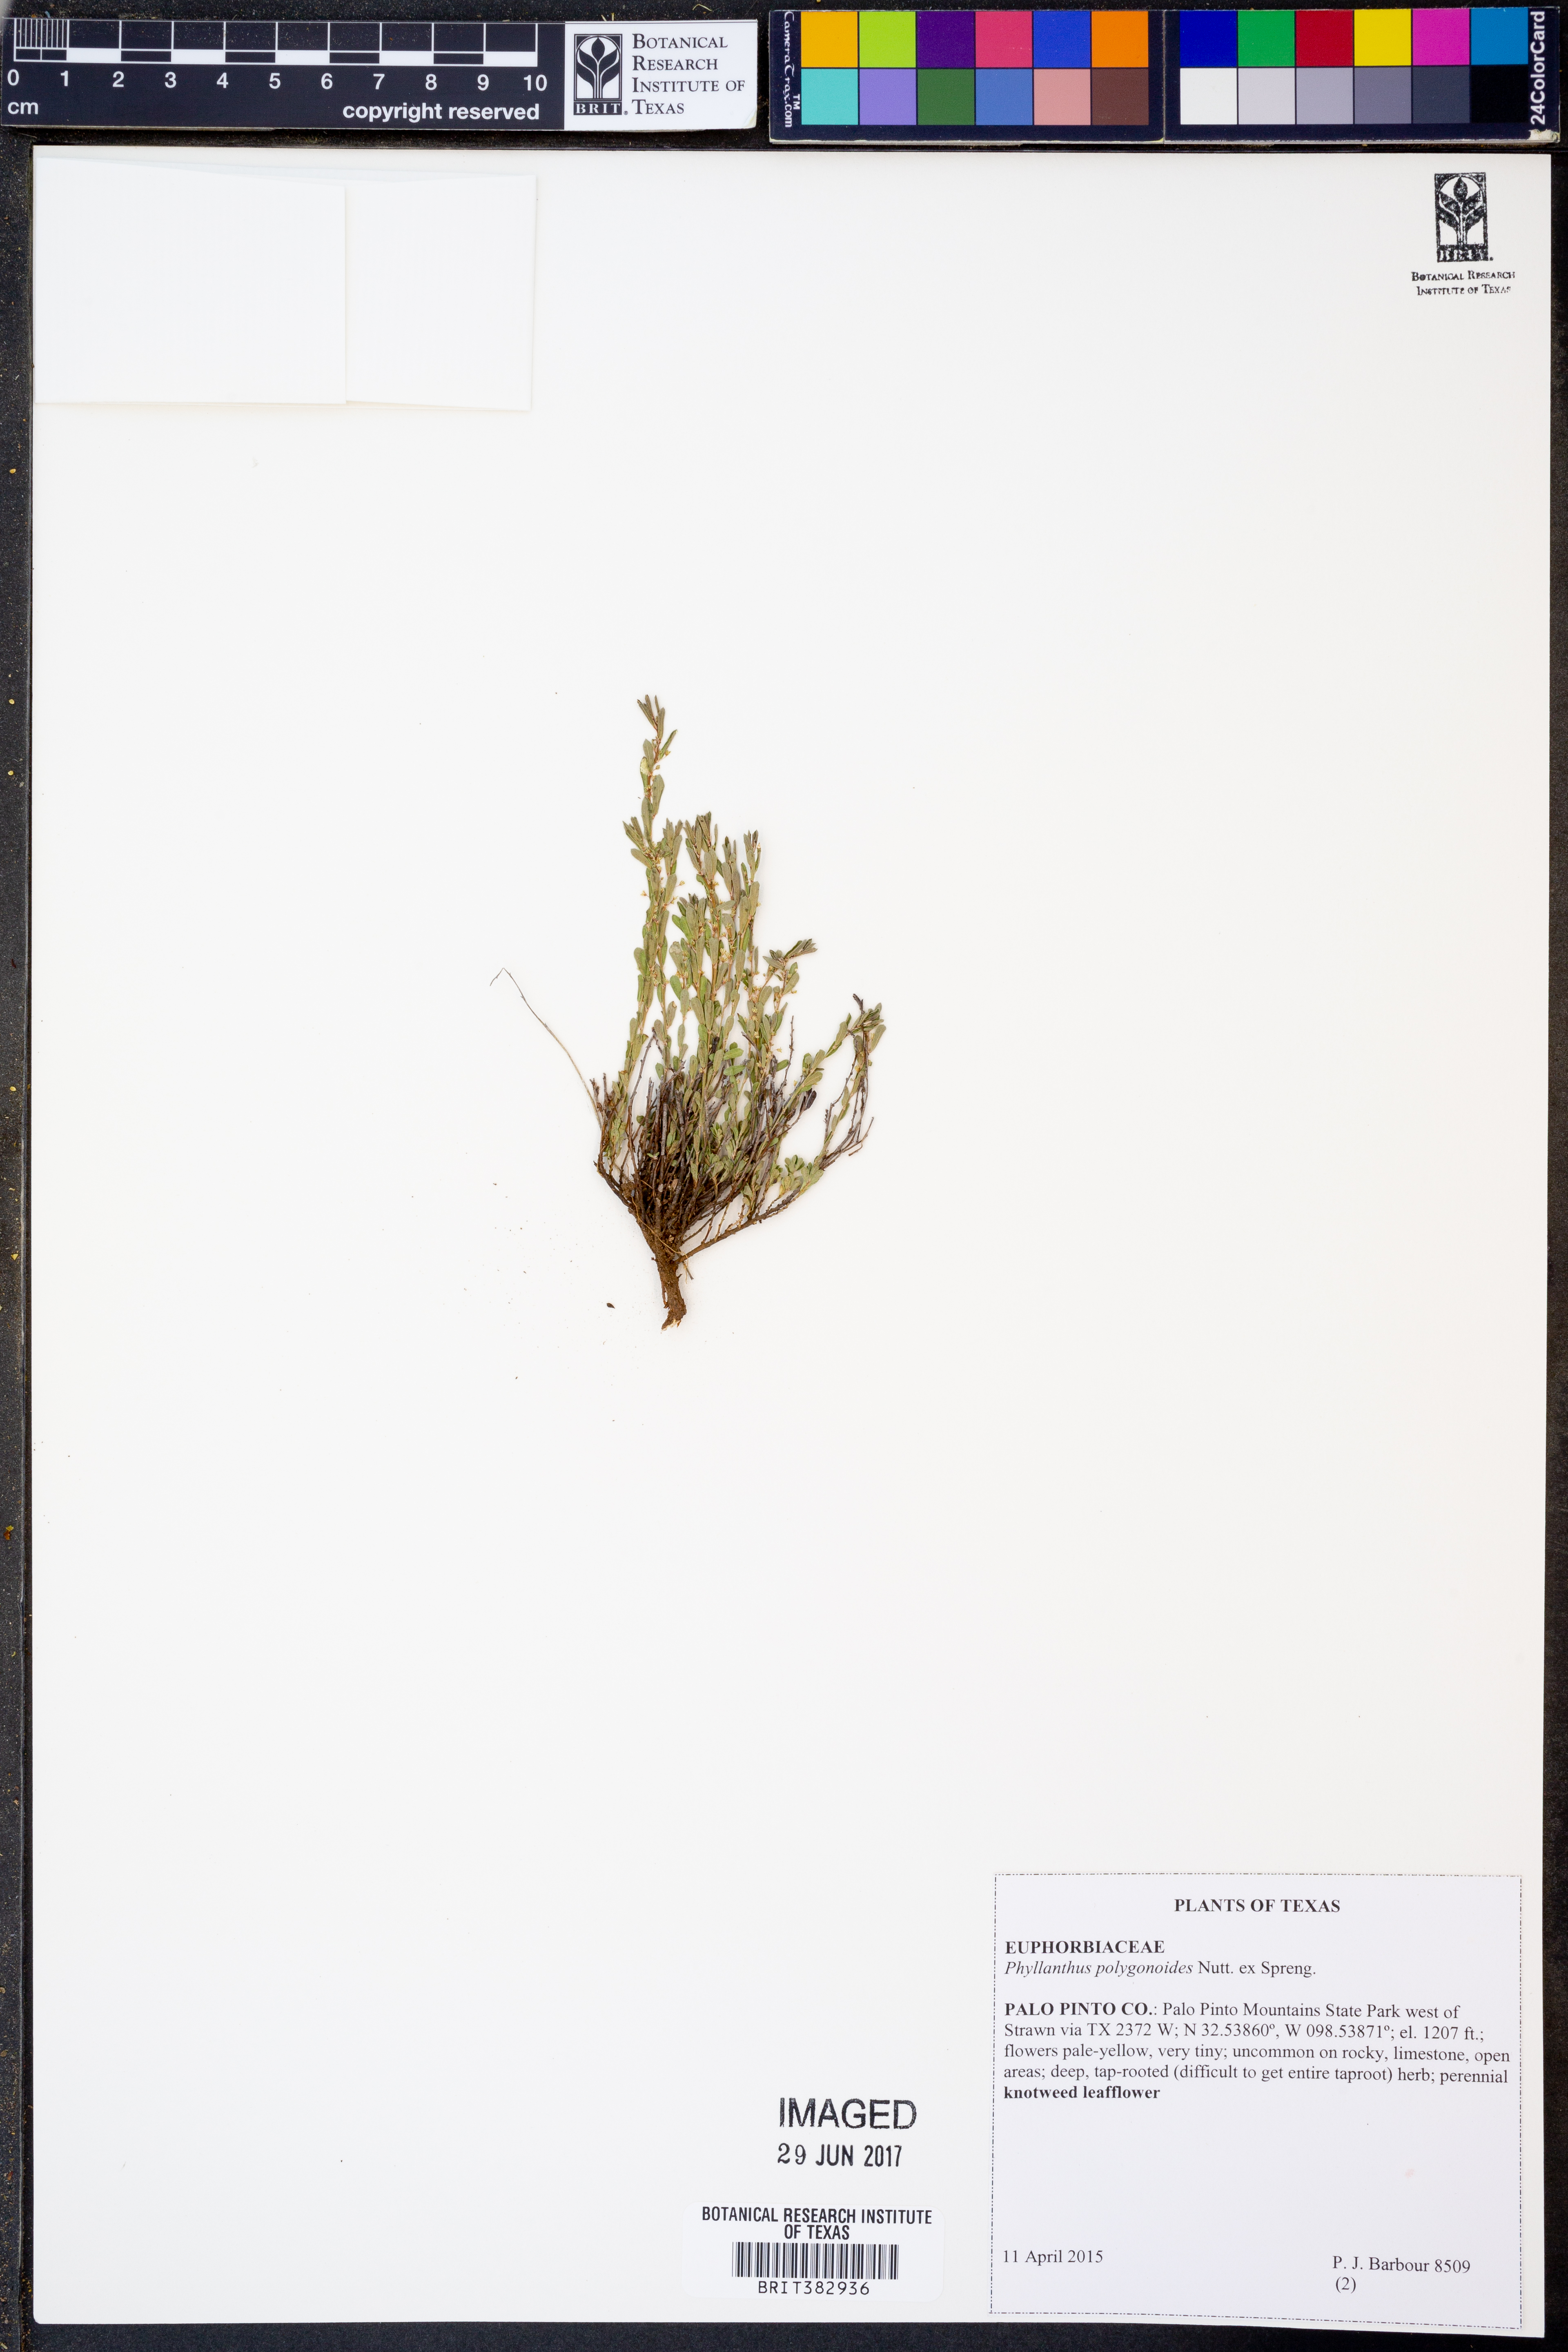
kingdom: Plantae
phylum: Tracheophyta
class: Magnoliopsida
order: Malpighiales
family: Phyllanthaceae
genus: Phyllanthus
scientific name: Phyllanthus polygonoides
